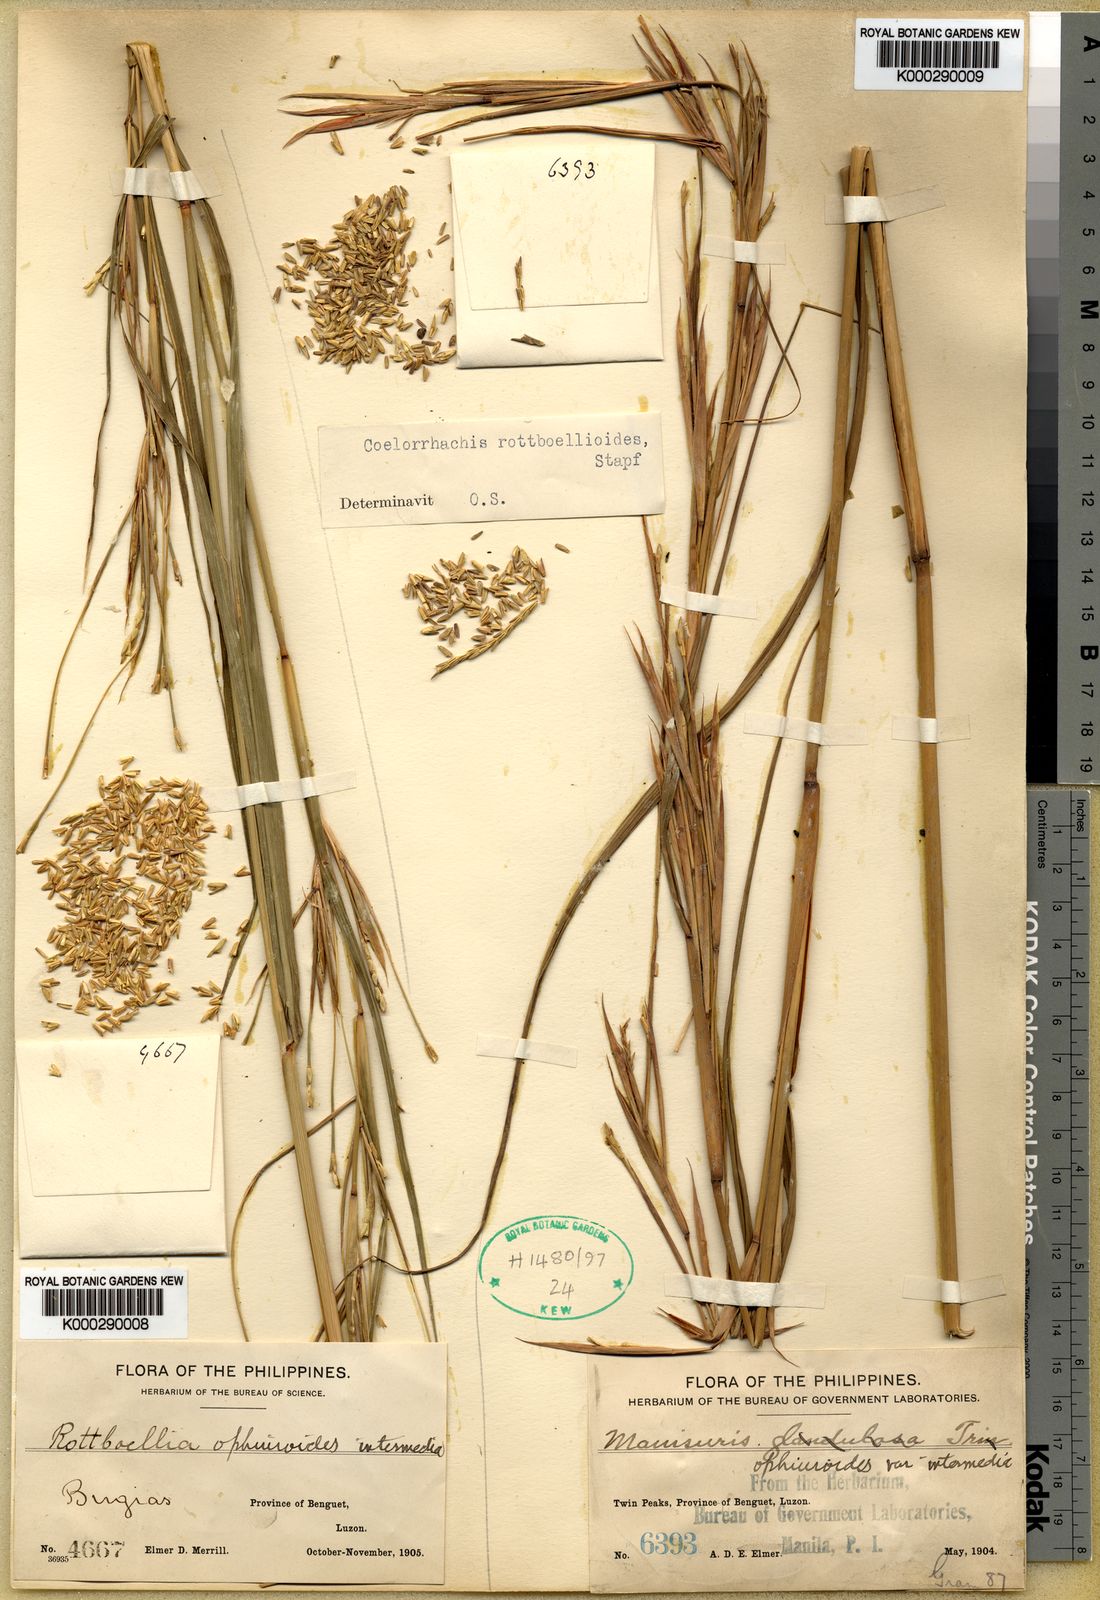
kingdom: Plantae
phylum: Tracheophyta
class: Liliopsida
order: Poales
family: Poaceae
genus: Rottboellia
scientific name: Rottboellia
